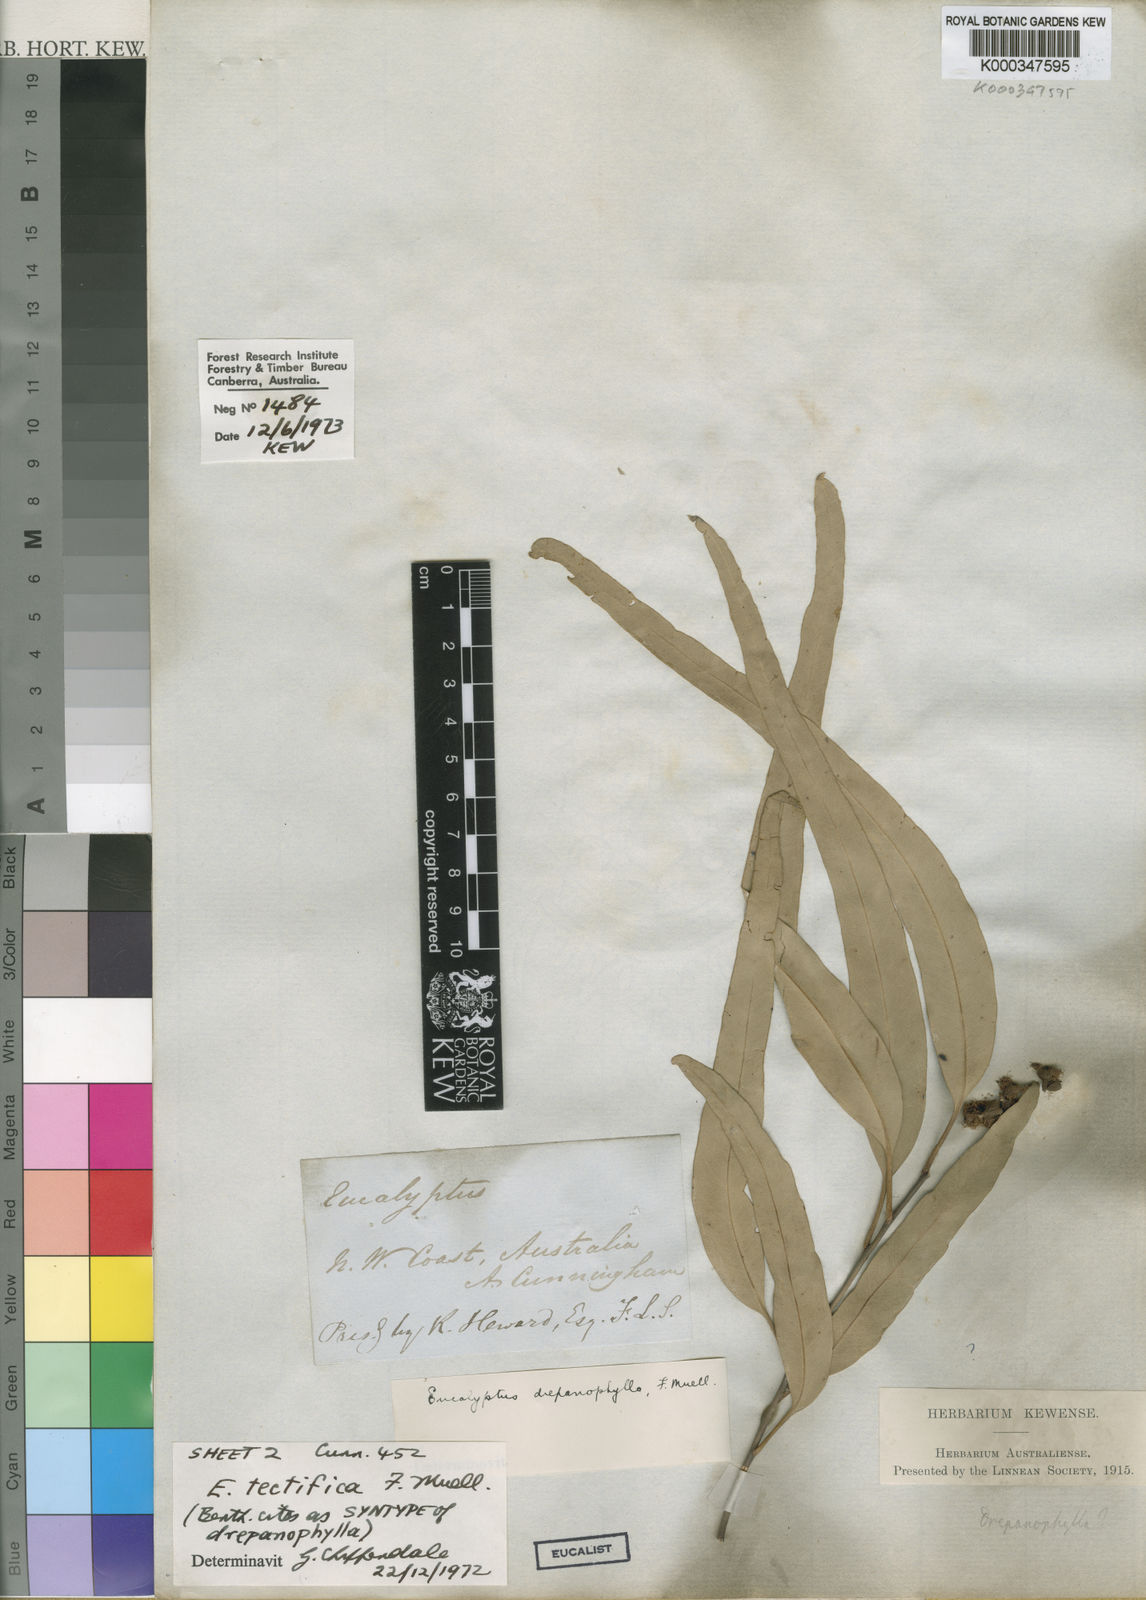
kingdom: Plantae
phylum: Tracheophyta
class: Magnoliopsida
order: Myrtales
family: Myrtaceae
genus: Eucalyptus
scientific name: Eucalyptus tectifica
